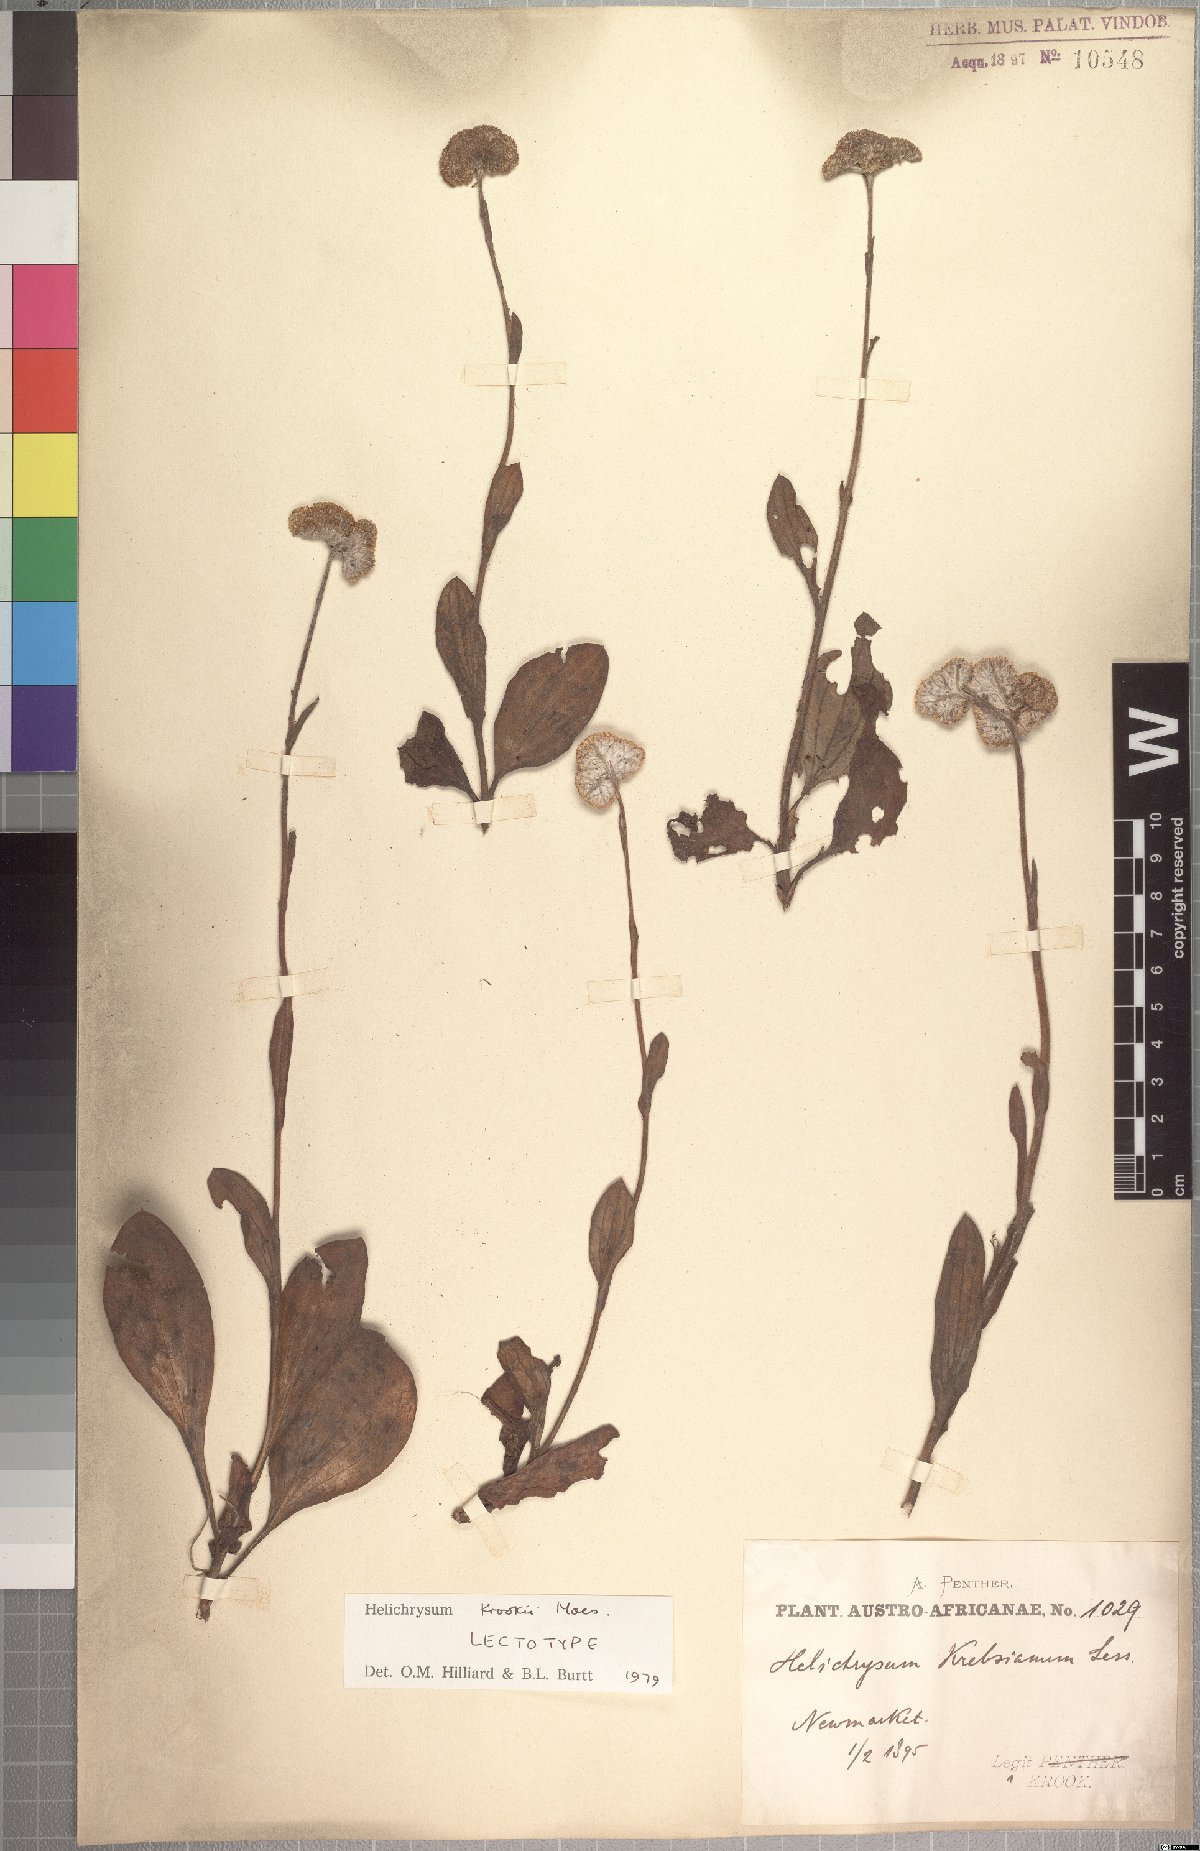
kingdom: Plantae
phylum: Tracheophyta
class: Magnoliopsida
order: Asterales
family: Asteraceae
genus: Helichrysum
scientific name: Helichrysum krookii
